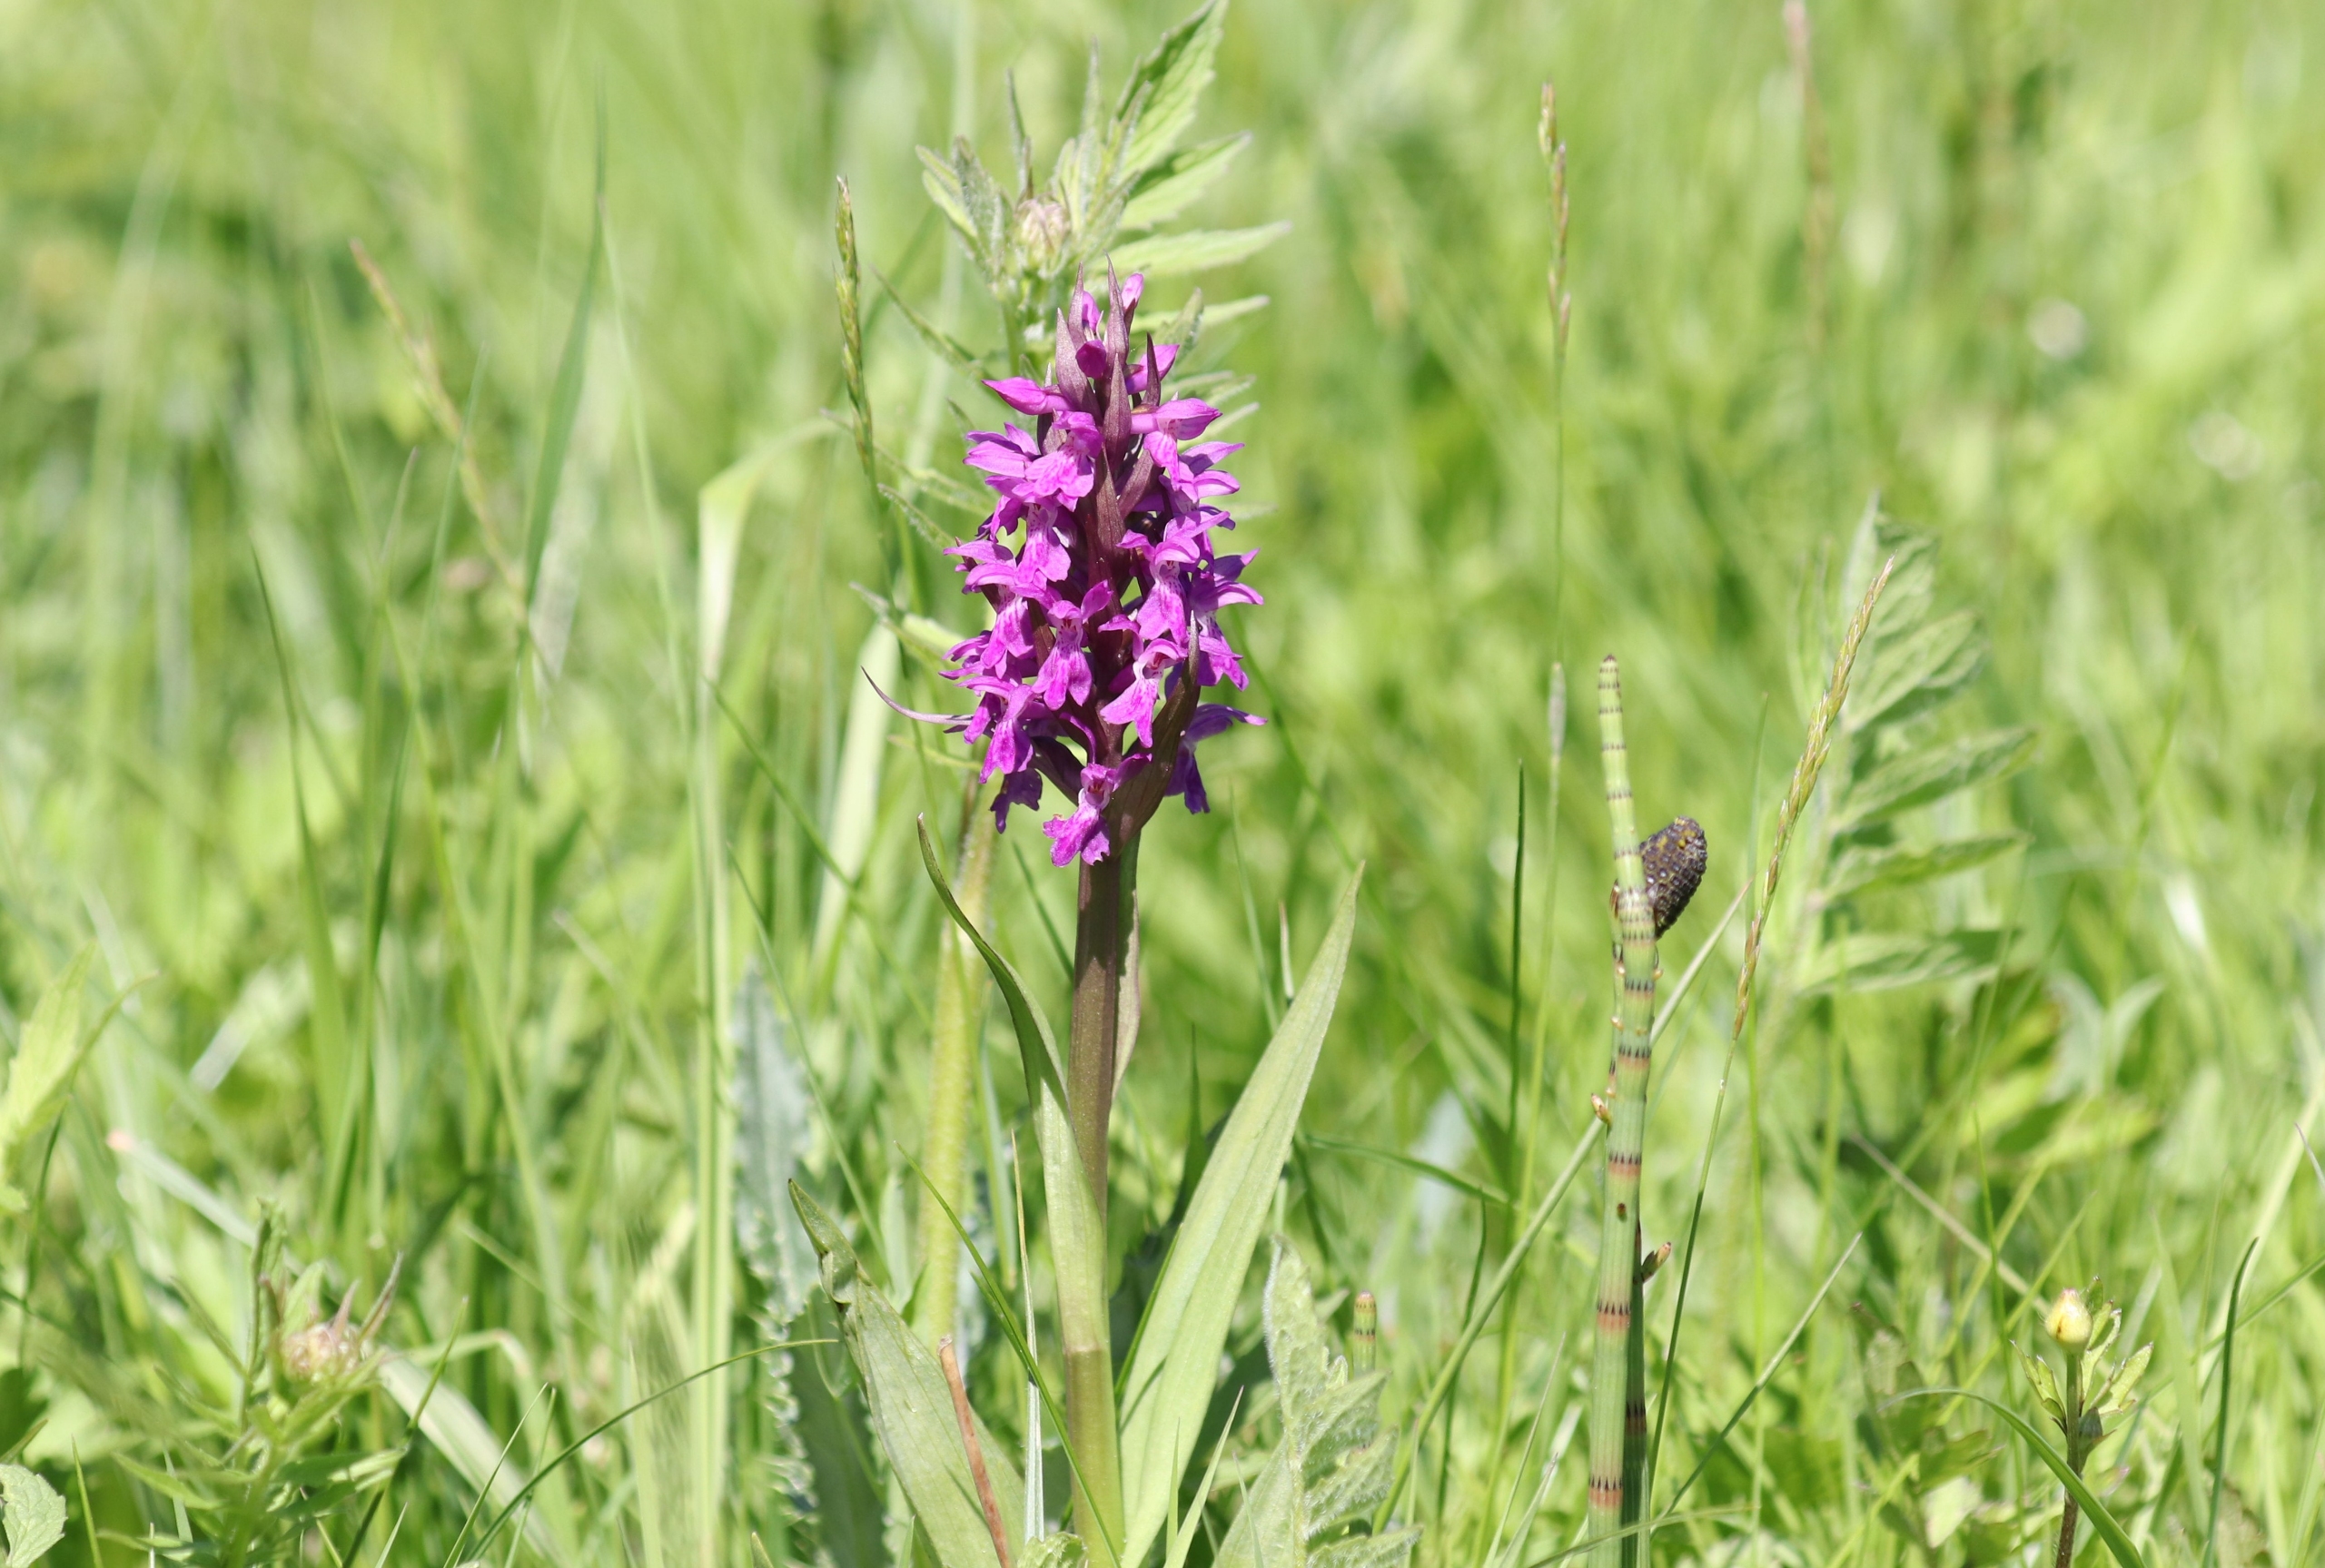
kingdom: Plantae
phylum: Tracheophyta
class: Liliopsida
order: Asparagales
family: Orchidaceae
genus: Dactylorhiza
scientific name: Dactylorhiza majalis
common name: Maj-gøgeurt
